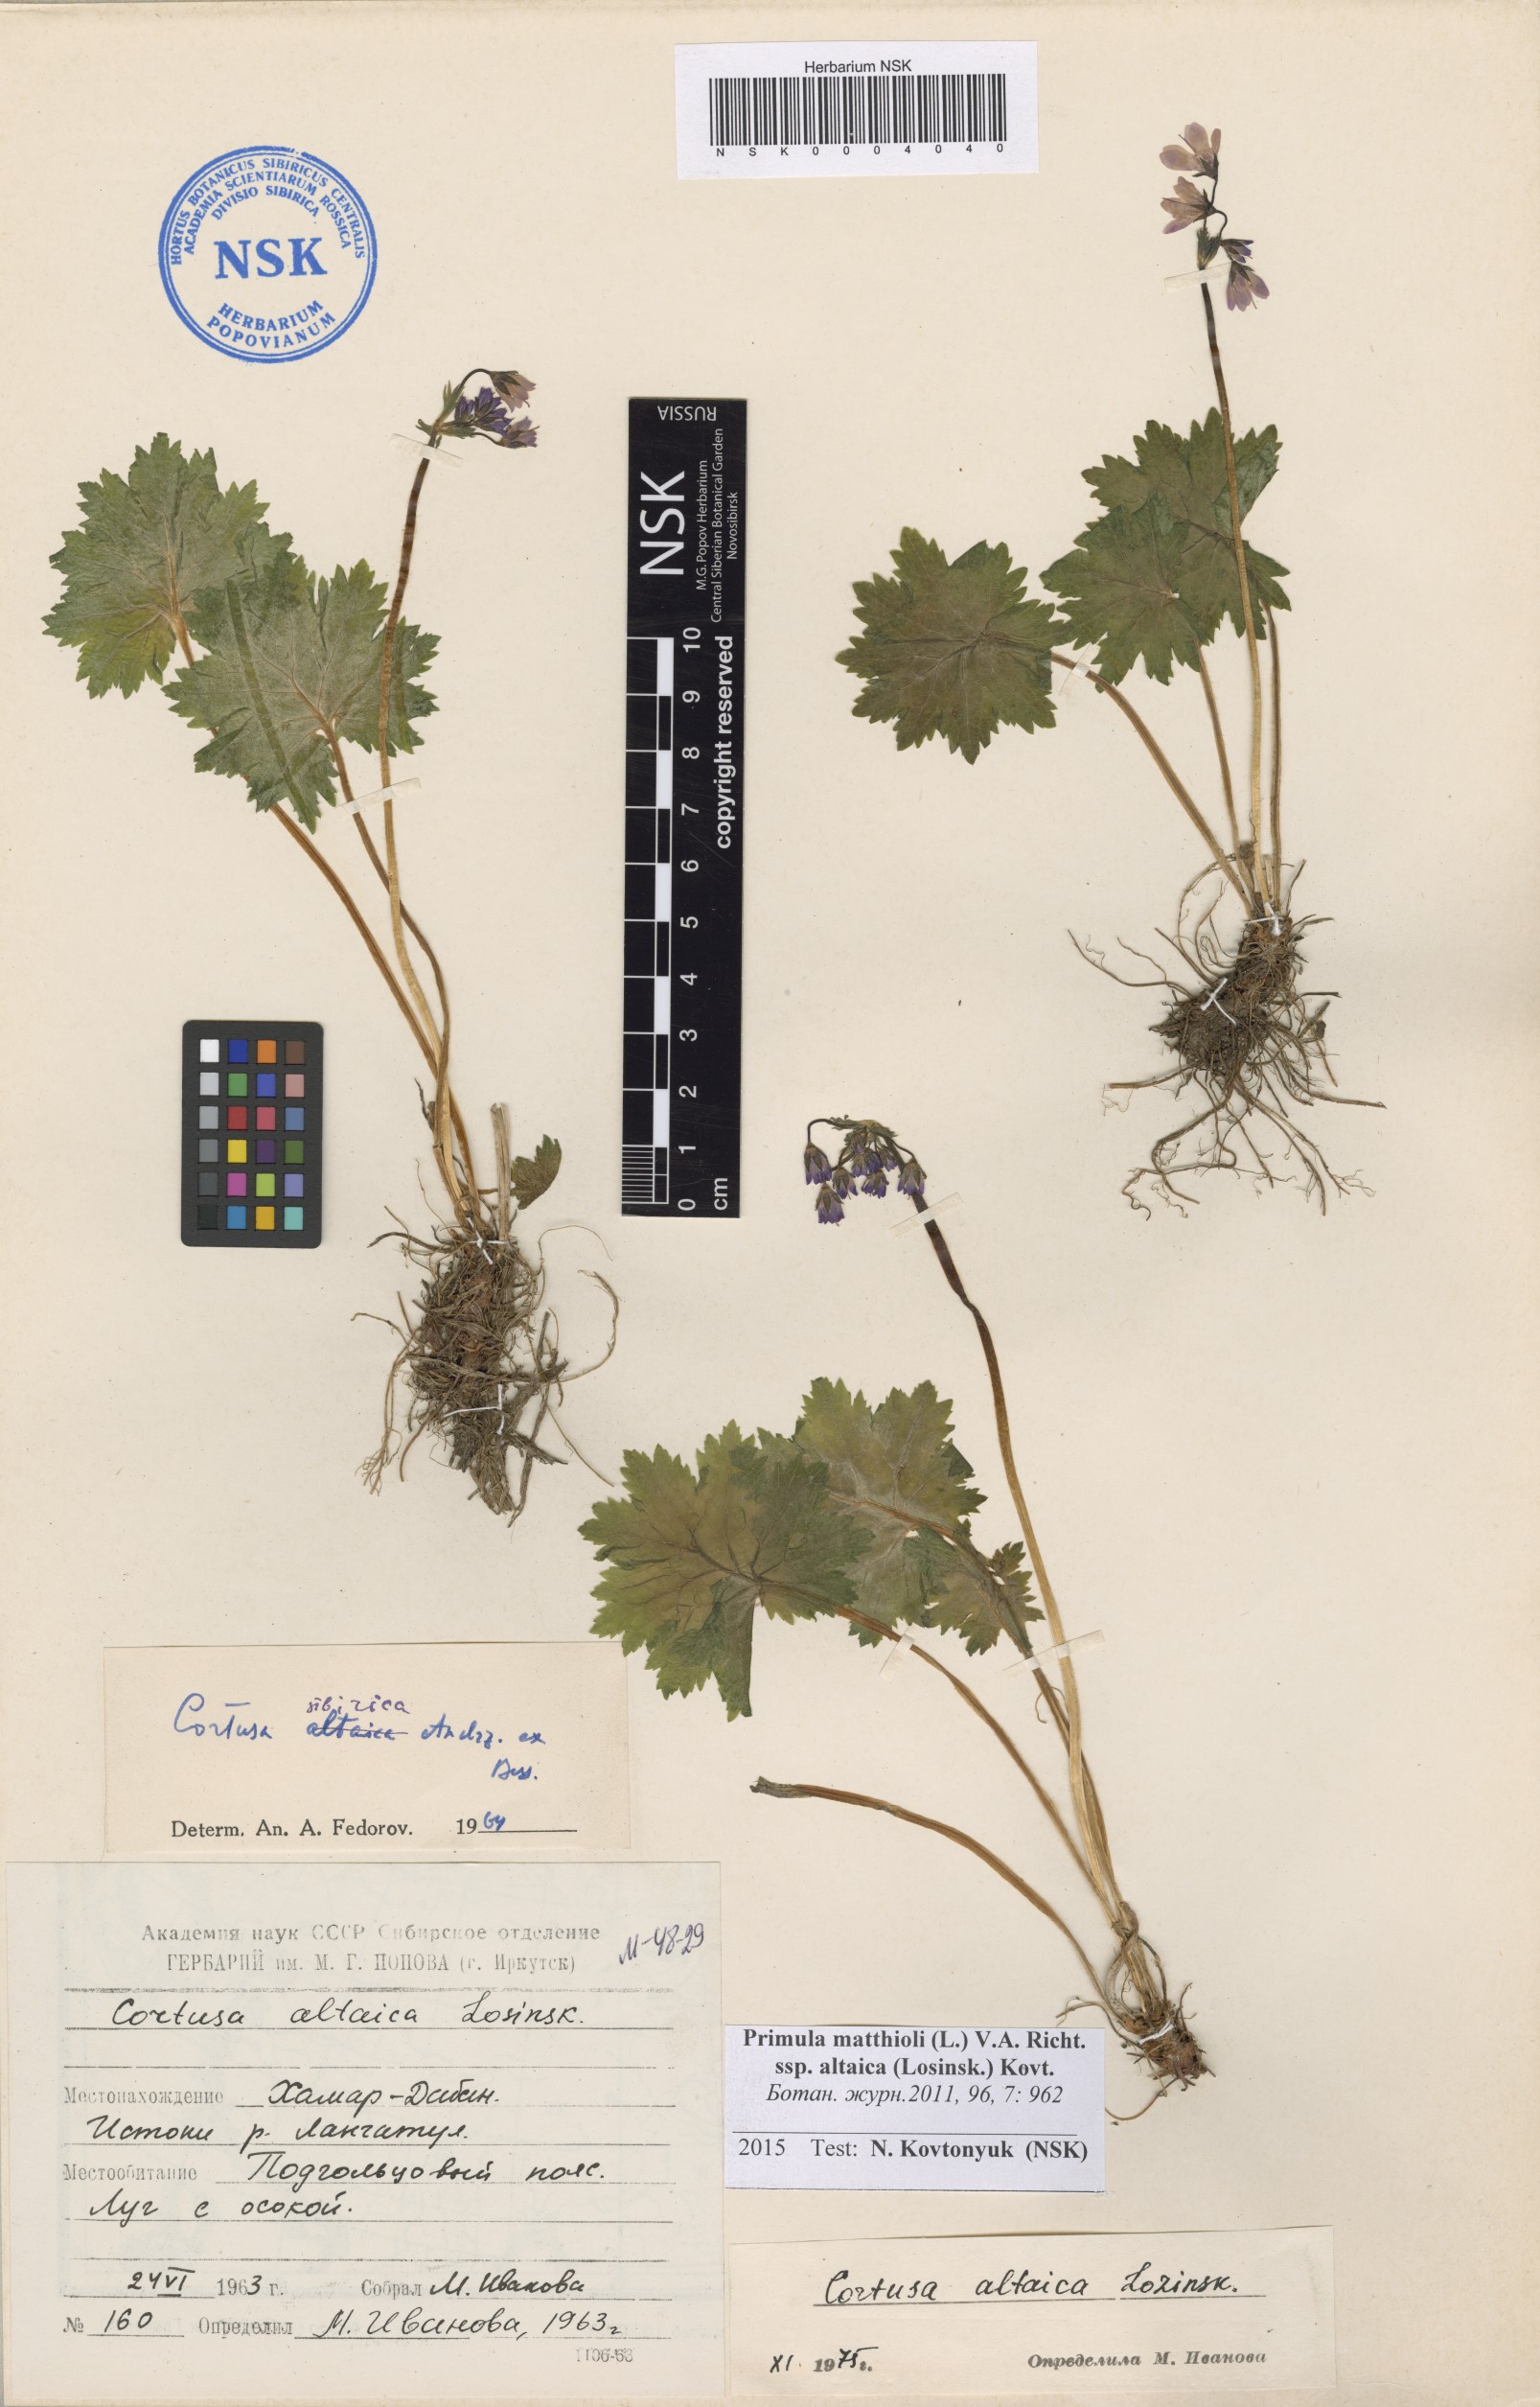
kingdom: Plantae
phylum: Tracheophyta
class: Magnoliopsida
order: Ericales
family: Primulaceae
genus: Primula
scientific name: Primula matthioli
